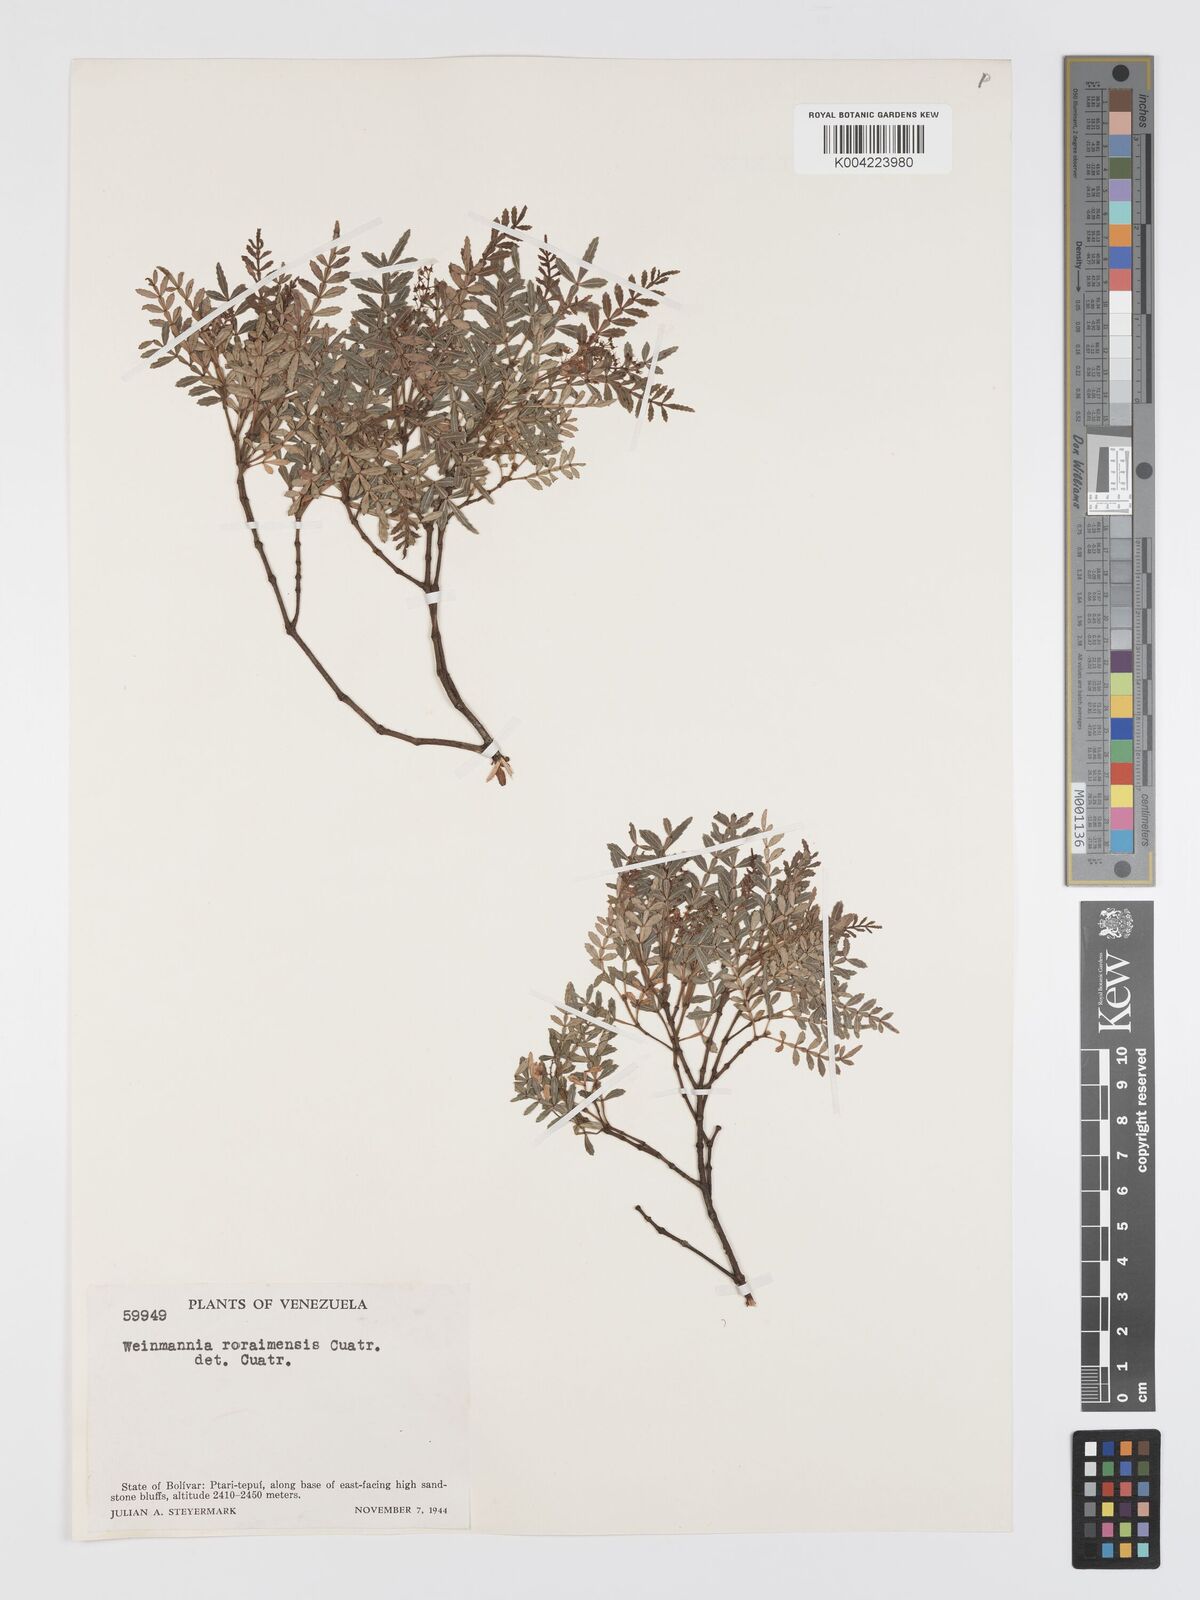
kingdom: Plantae
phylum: Tracheophyta
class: Magnoliopsida
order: Oxalidales
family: Cunoniaceae
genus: Weinmannia
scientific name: Weinmannia fagaroides
